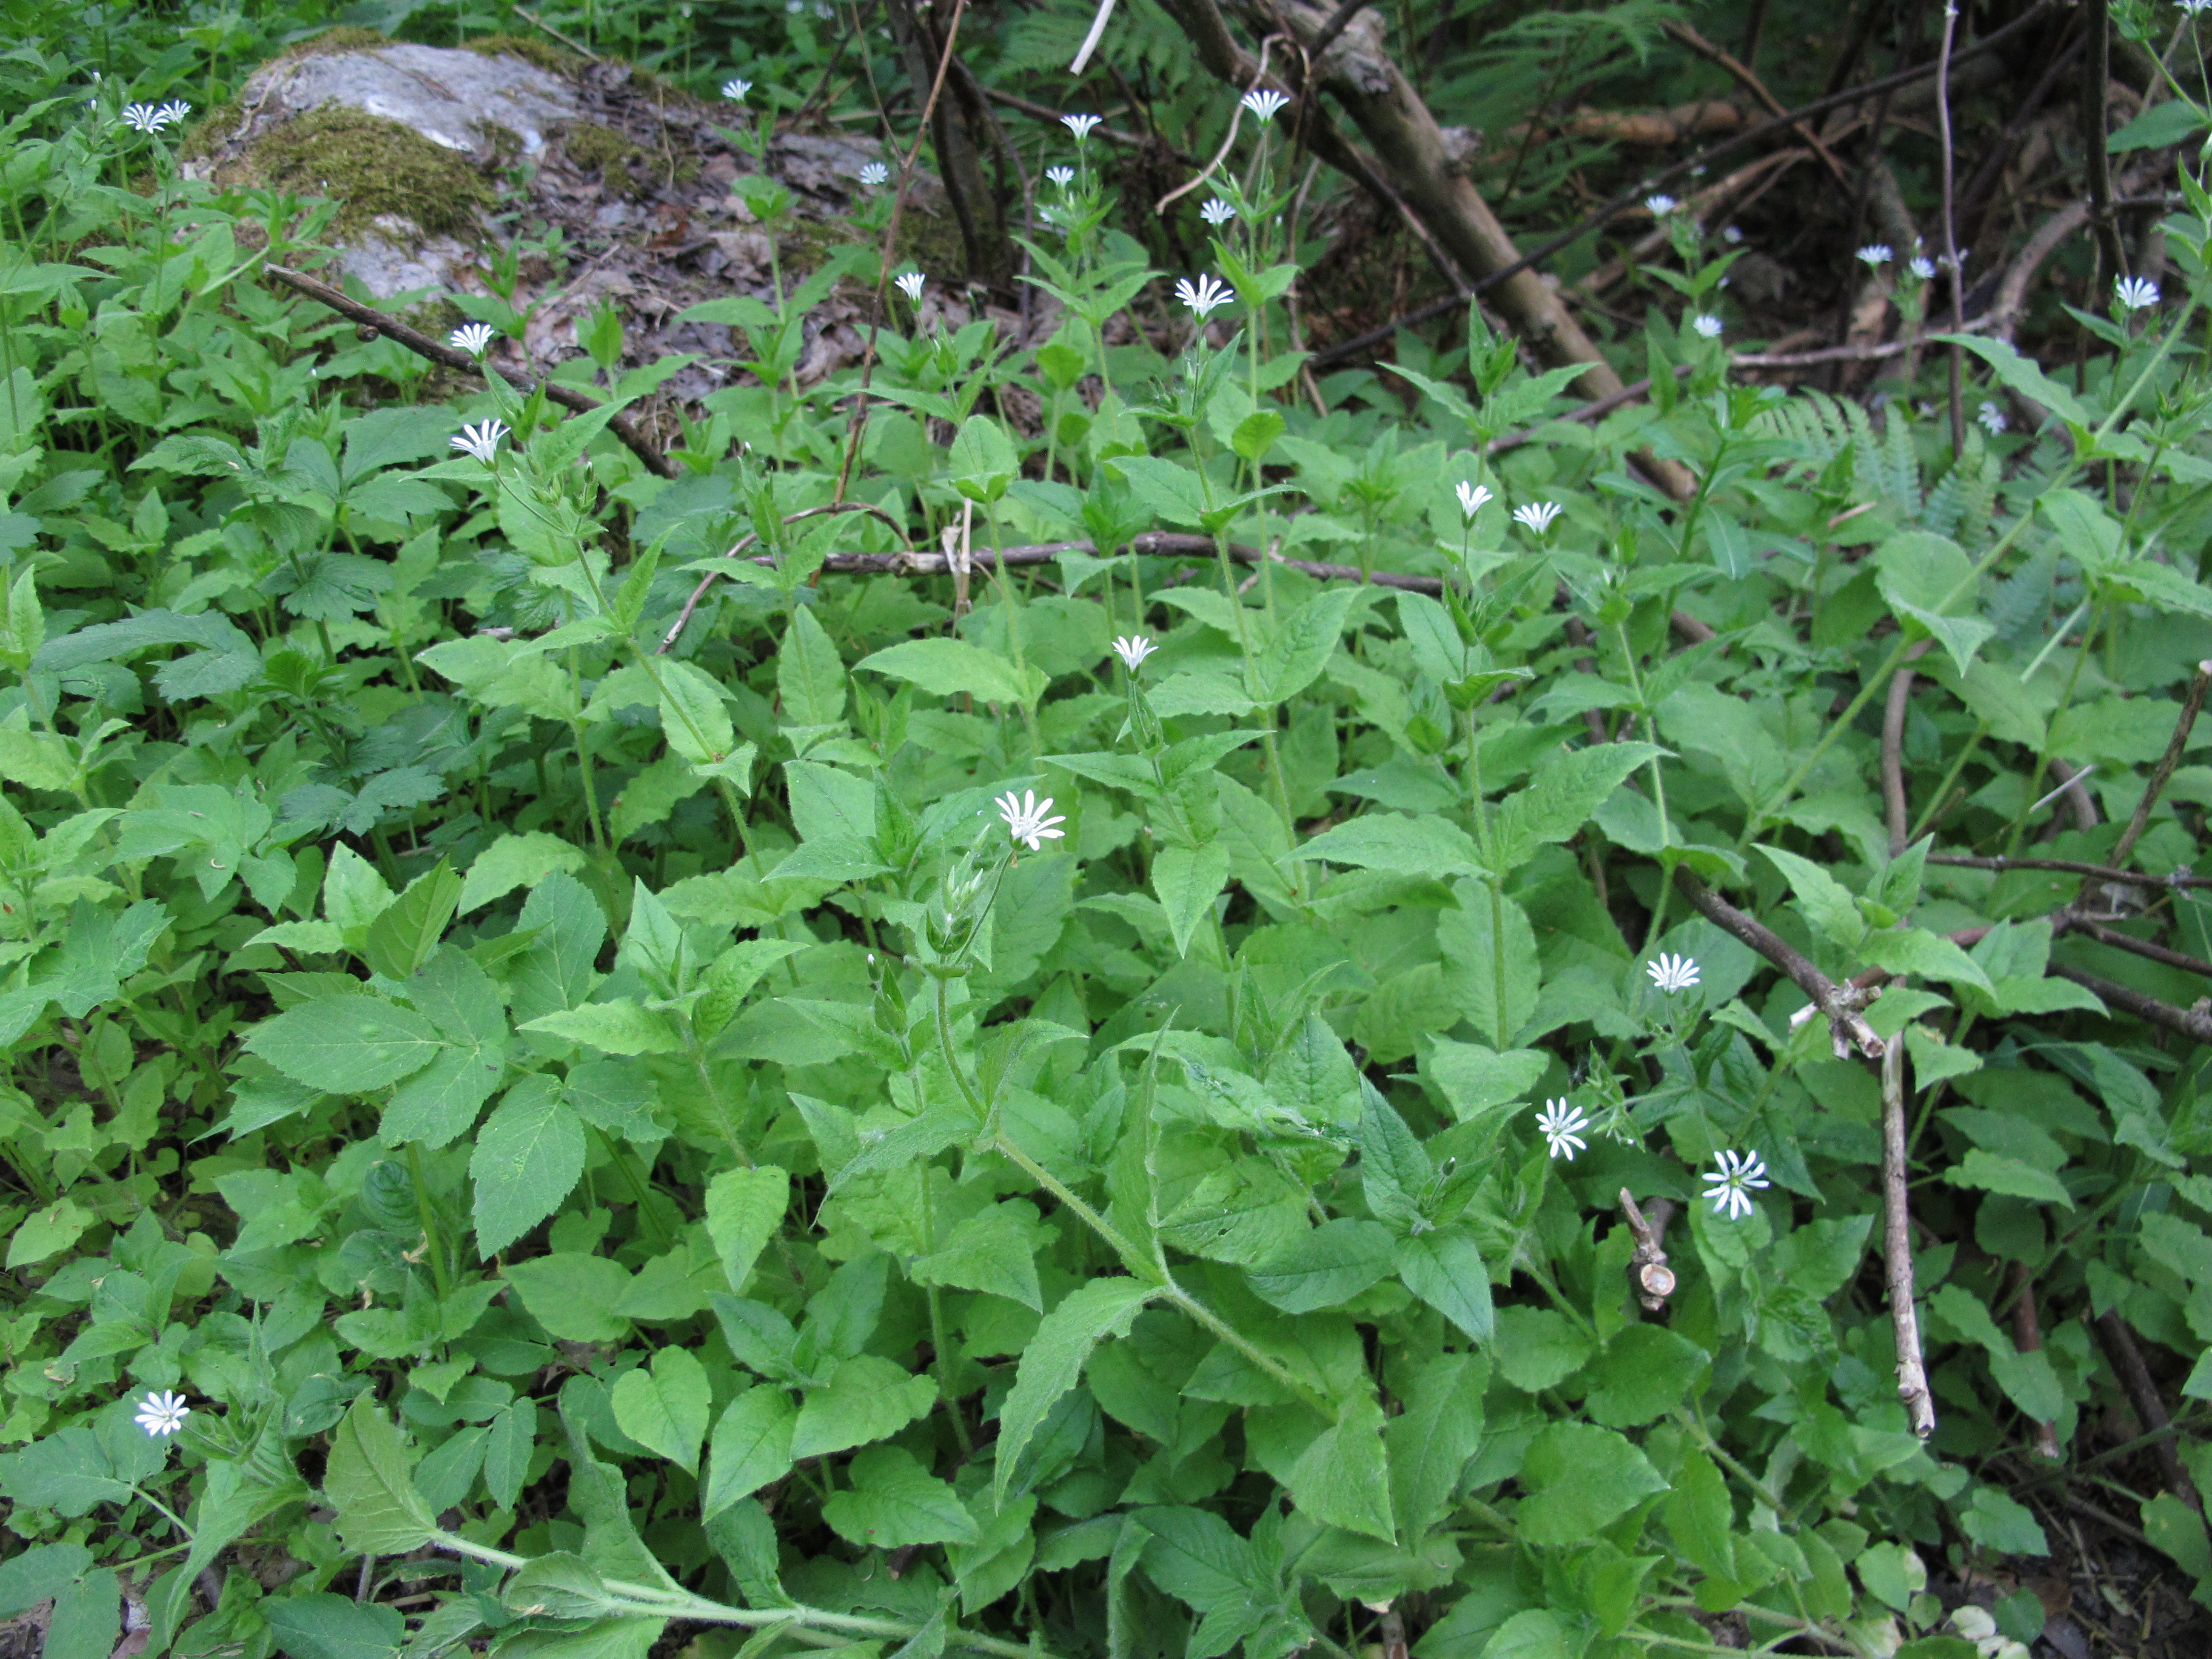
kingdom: Plantae
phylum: Tracheophyta
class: Magnoliopsida
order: Caryophyllales
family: Caryophyllaceae
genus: Stellaria
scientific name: Stellaria nemorum
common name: Wood stitchwort
